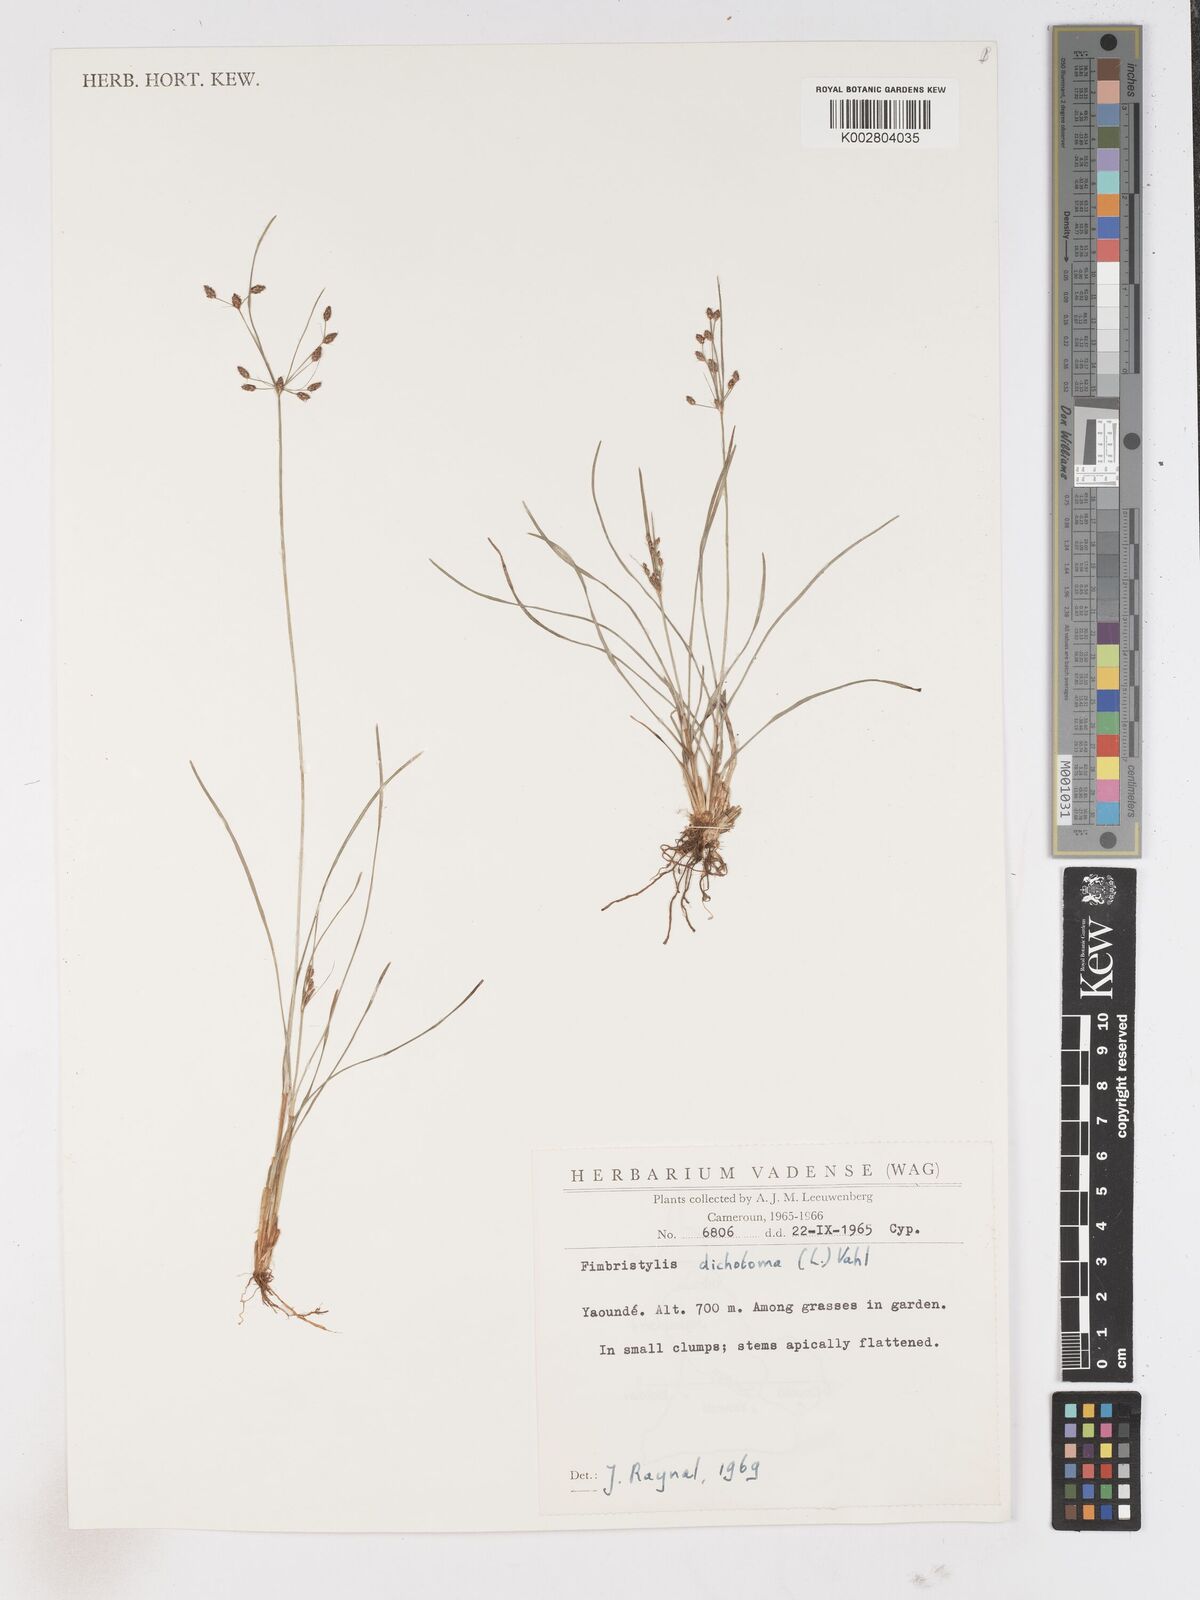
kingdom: Plantae
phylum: Tracheophyta
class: Liliopsida
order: Poales
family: Cyperaceae
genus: Fimbristylis
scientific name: Fimbristylis dichotoma
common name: Forked fimbry
